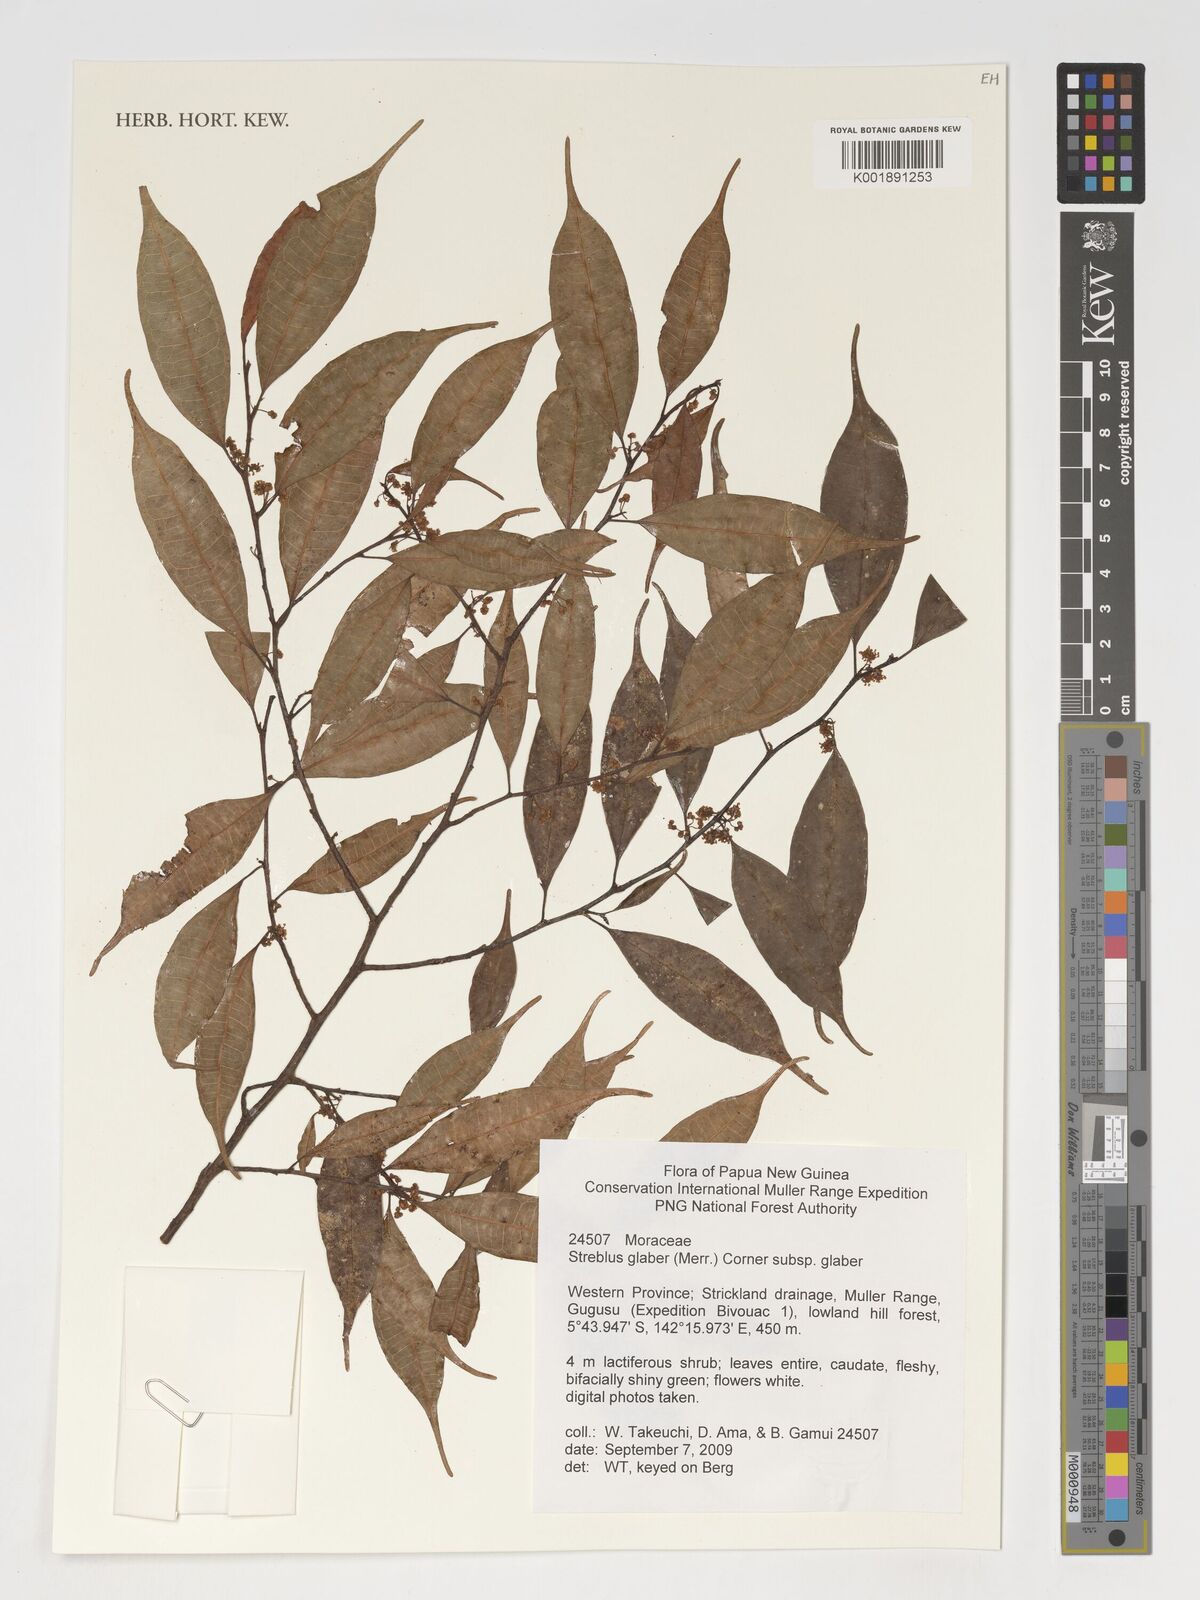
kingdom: Plantae
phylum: Tracheophyta
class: Magnoliopsida
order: Rosales
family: Moraceae
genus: Paratrophis
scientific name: Paratrophis glabra
